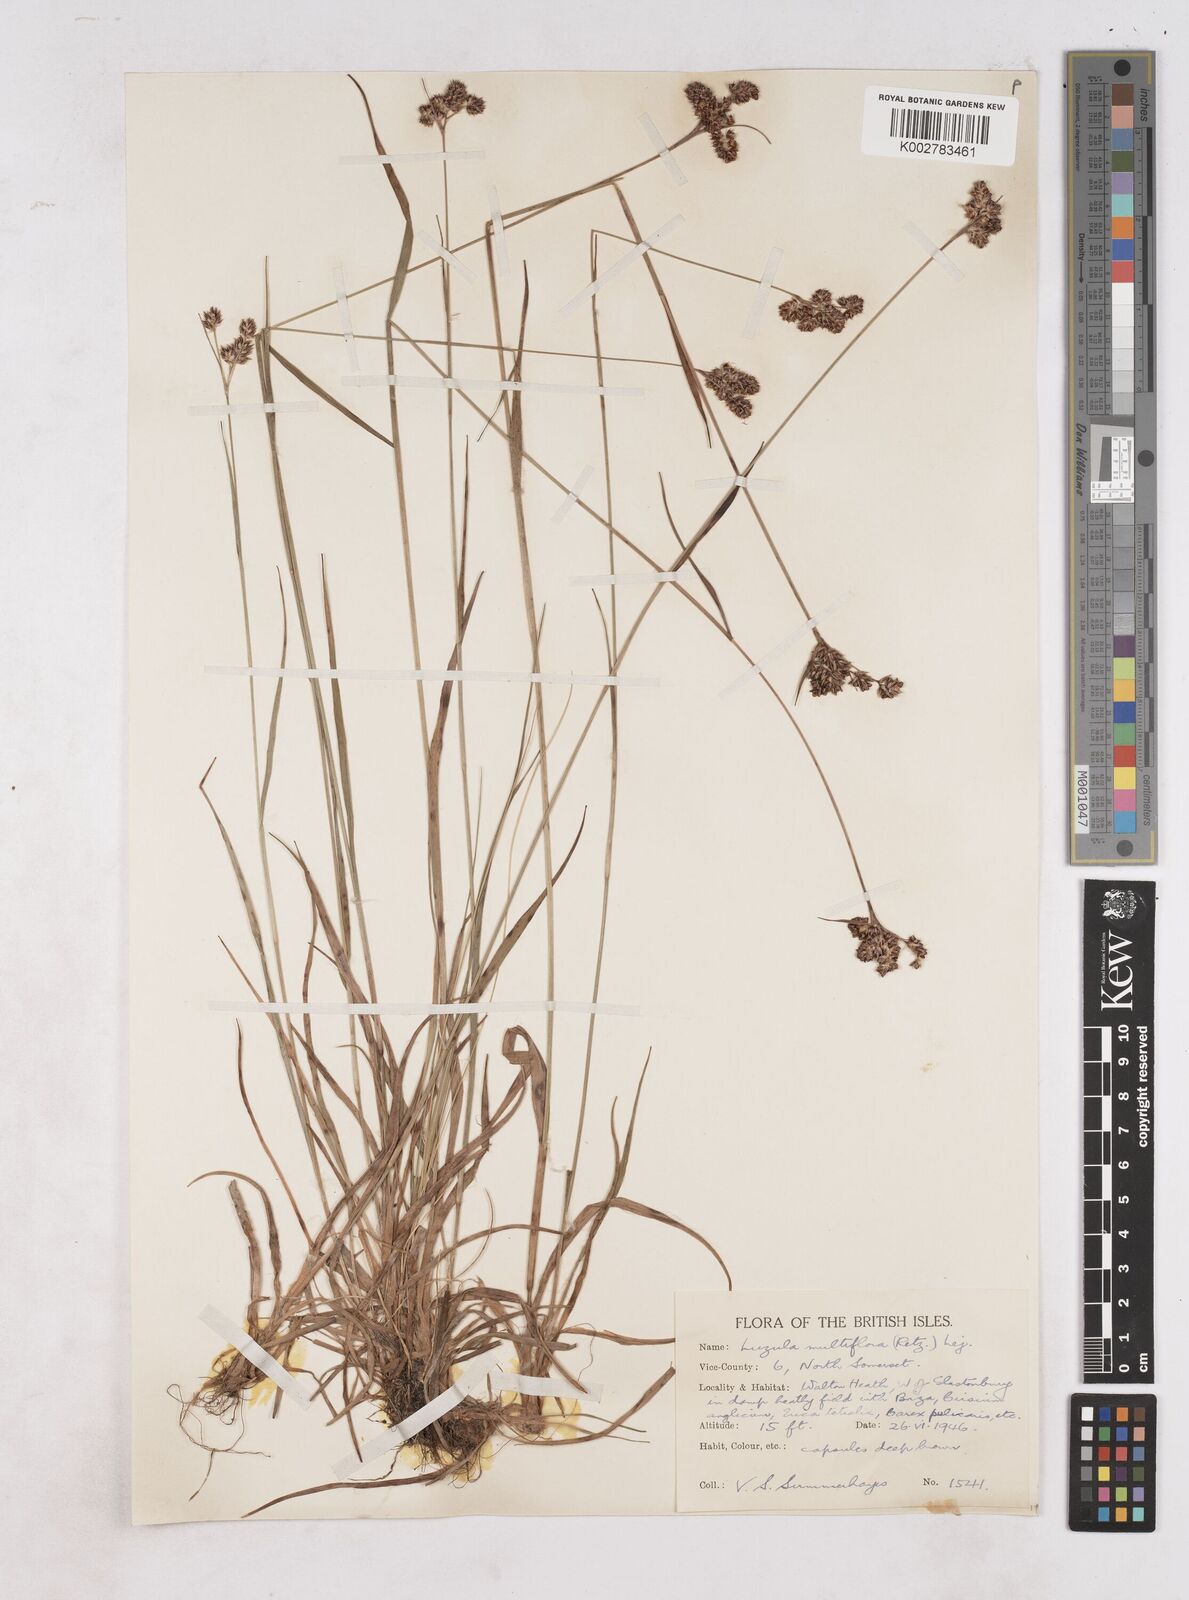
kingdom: Plantae
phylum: Tracheophyta
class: Liliopsida
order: Poales
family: Juncaceae
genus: Luzula
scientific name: Luzula campestris
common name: Field wood-rush
